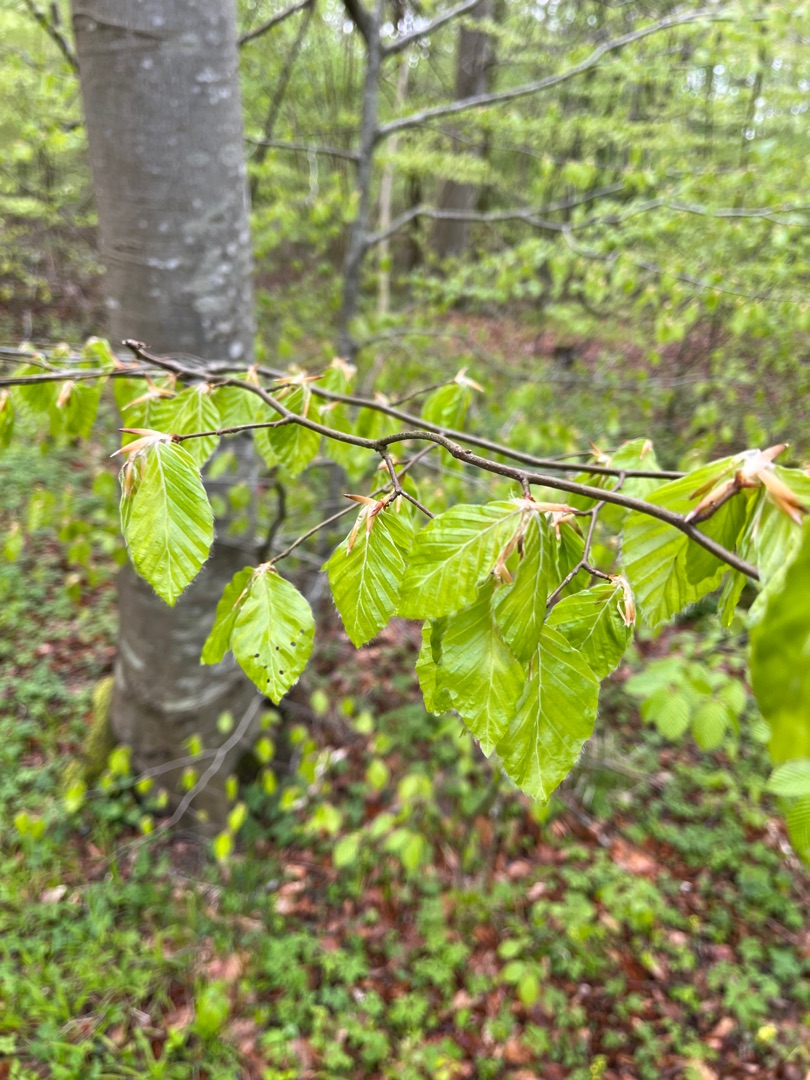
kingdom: Plantae
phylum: Tracheophyta
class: Magnoliopsida
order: Fagales
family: Fagaceae
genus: Fagus
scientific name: Fagus sylvatica
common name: Bøg
